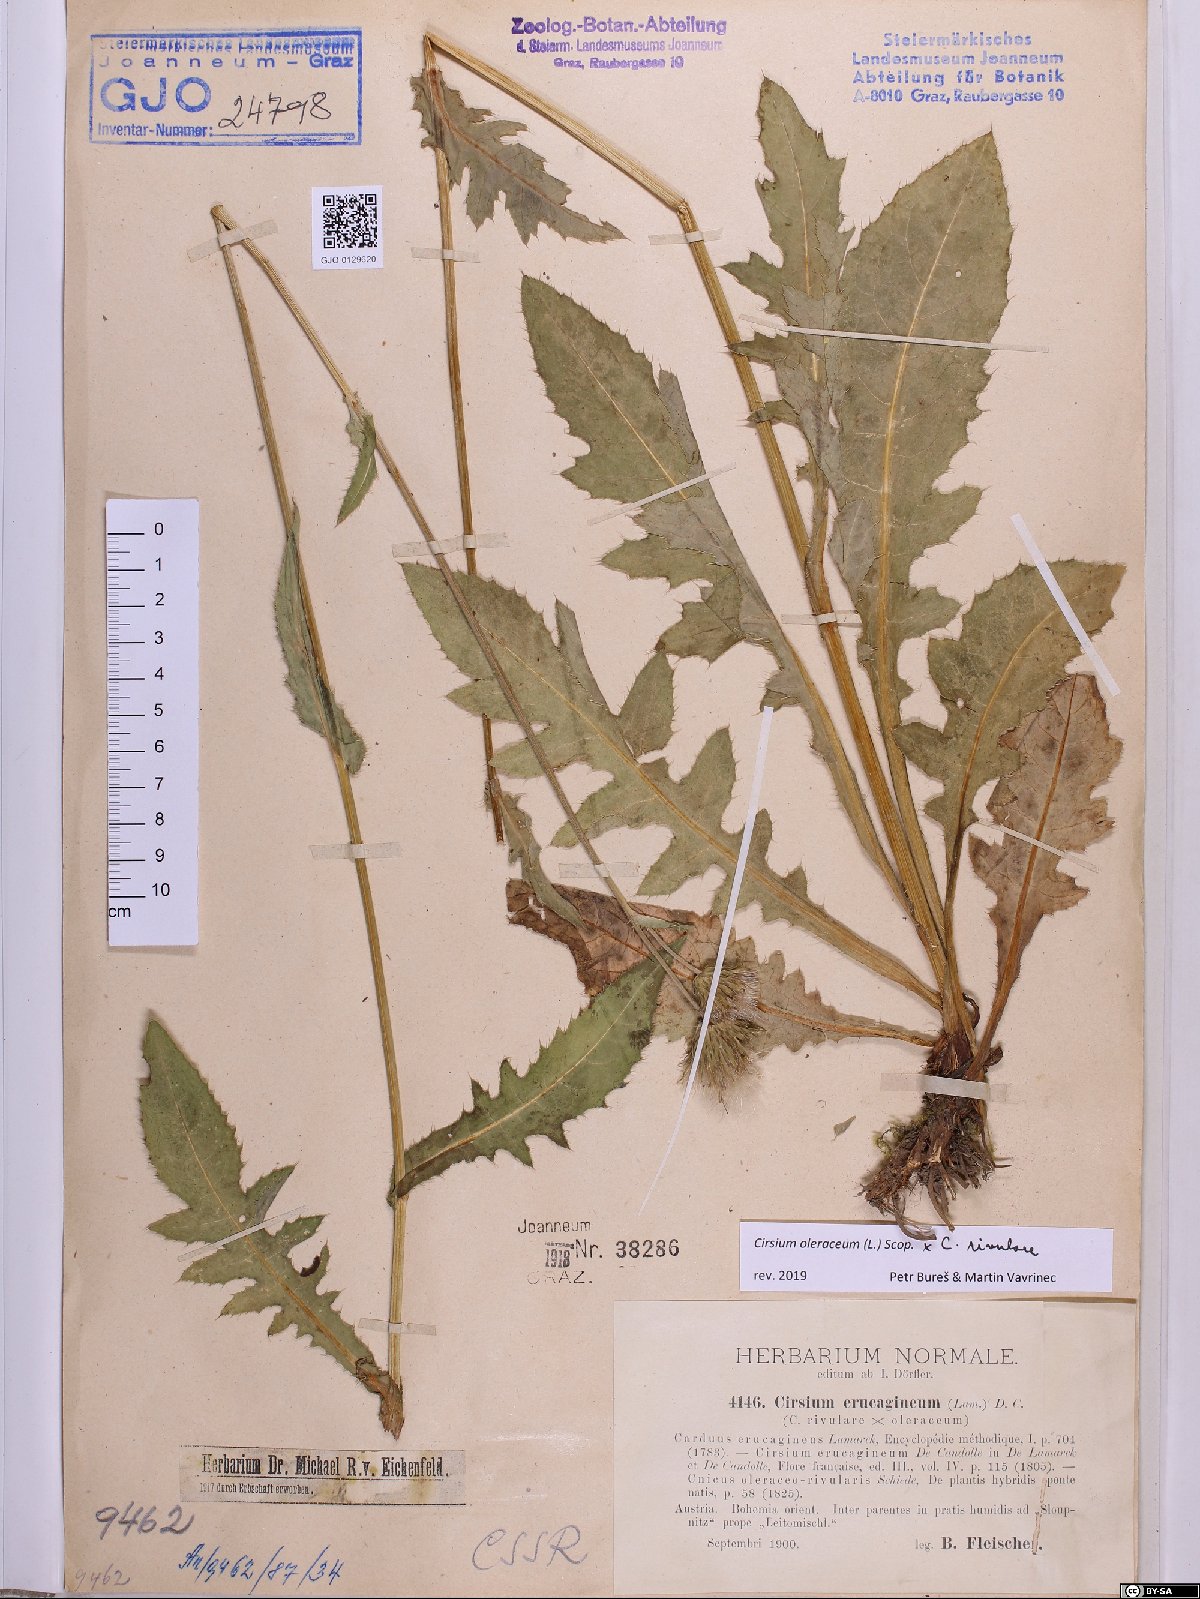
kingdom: Plantae
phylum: Tracheophyta
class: Magnoliopsida
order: Asterales
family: Asteraceae
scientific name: Asteraceae
